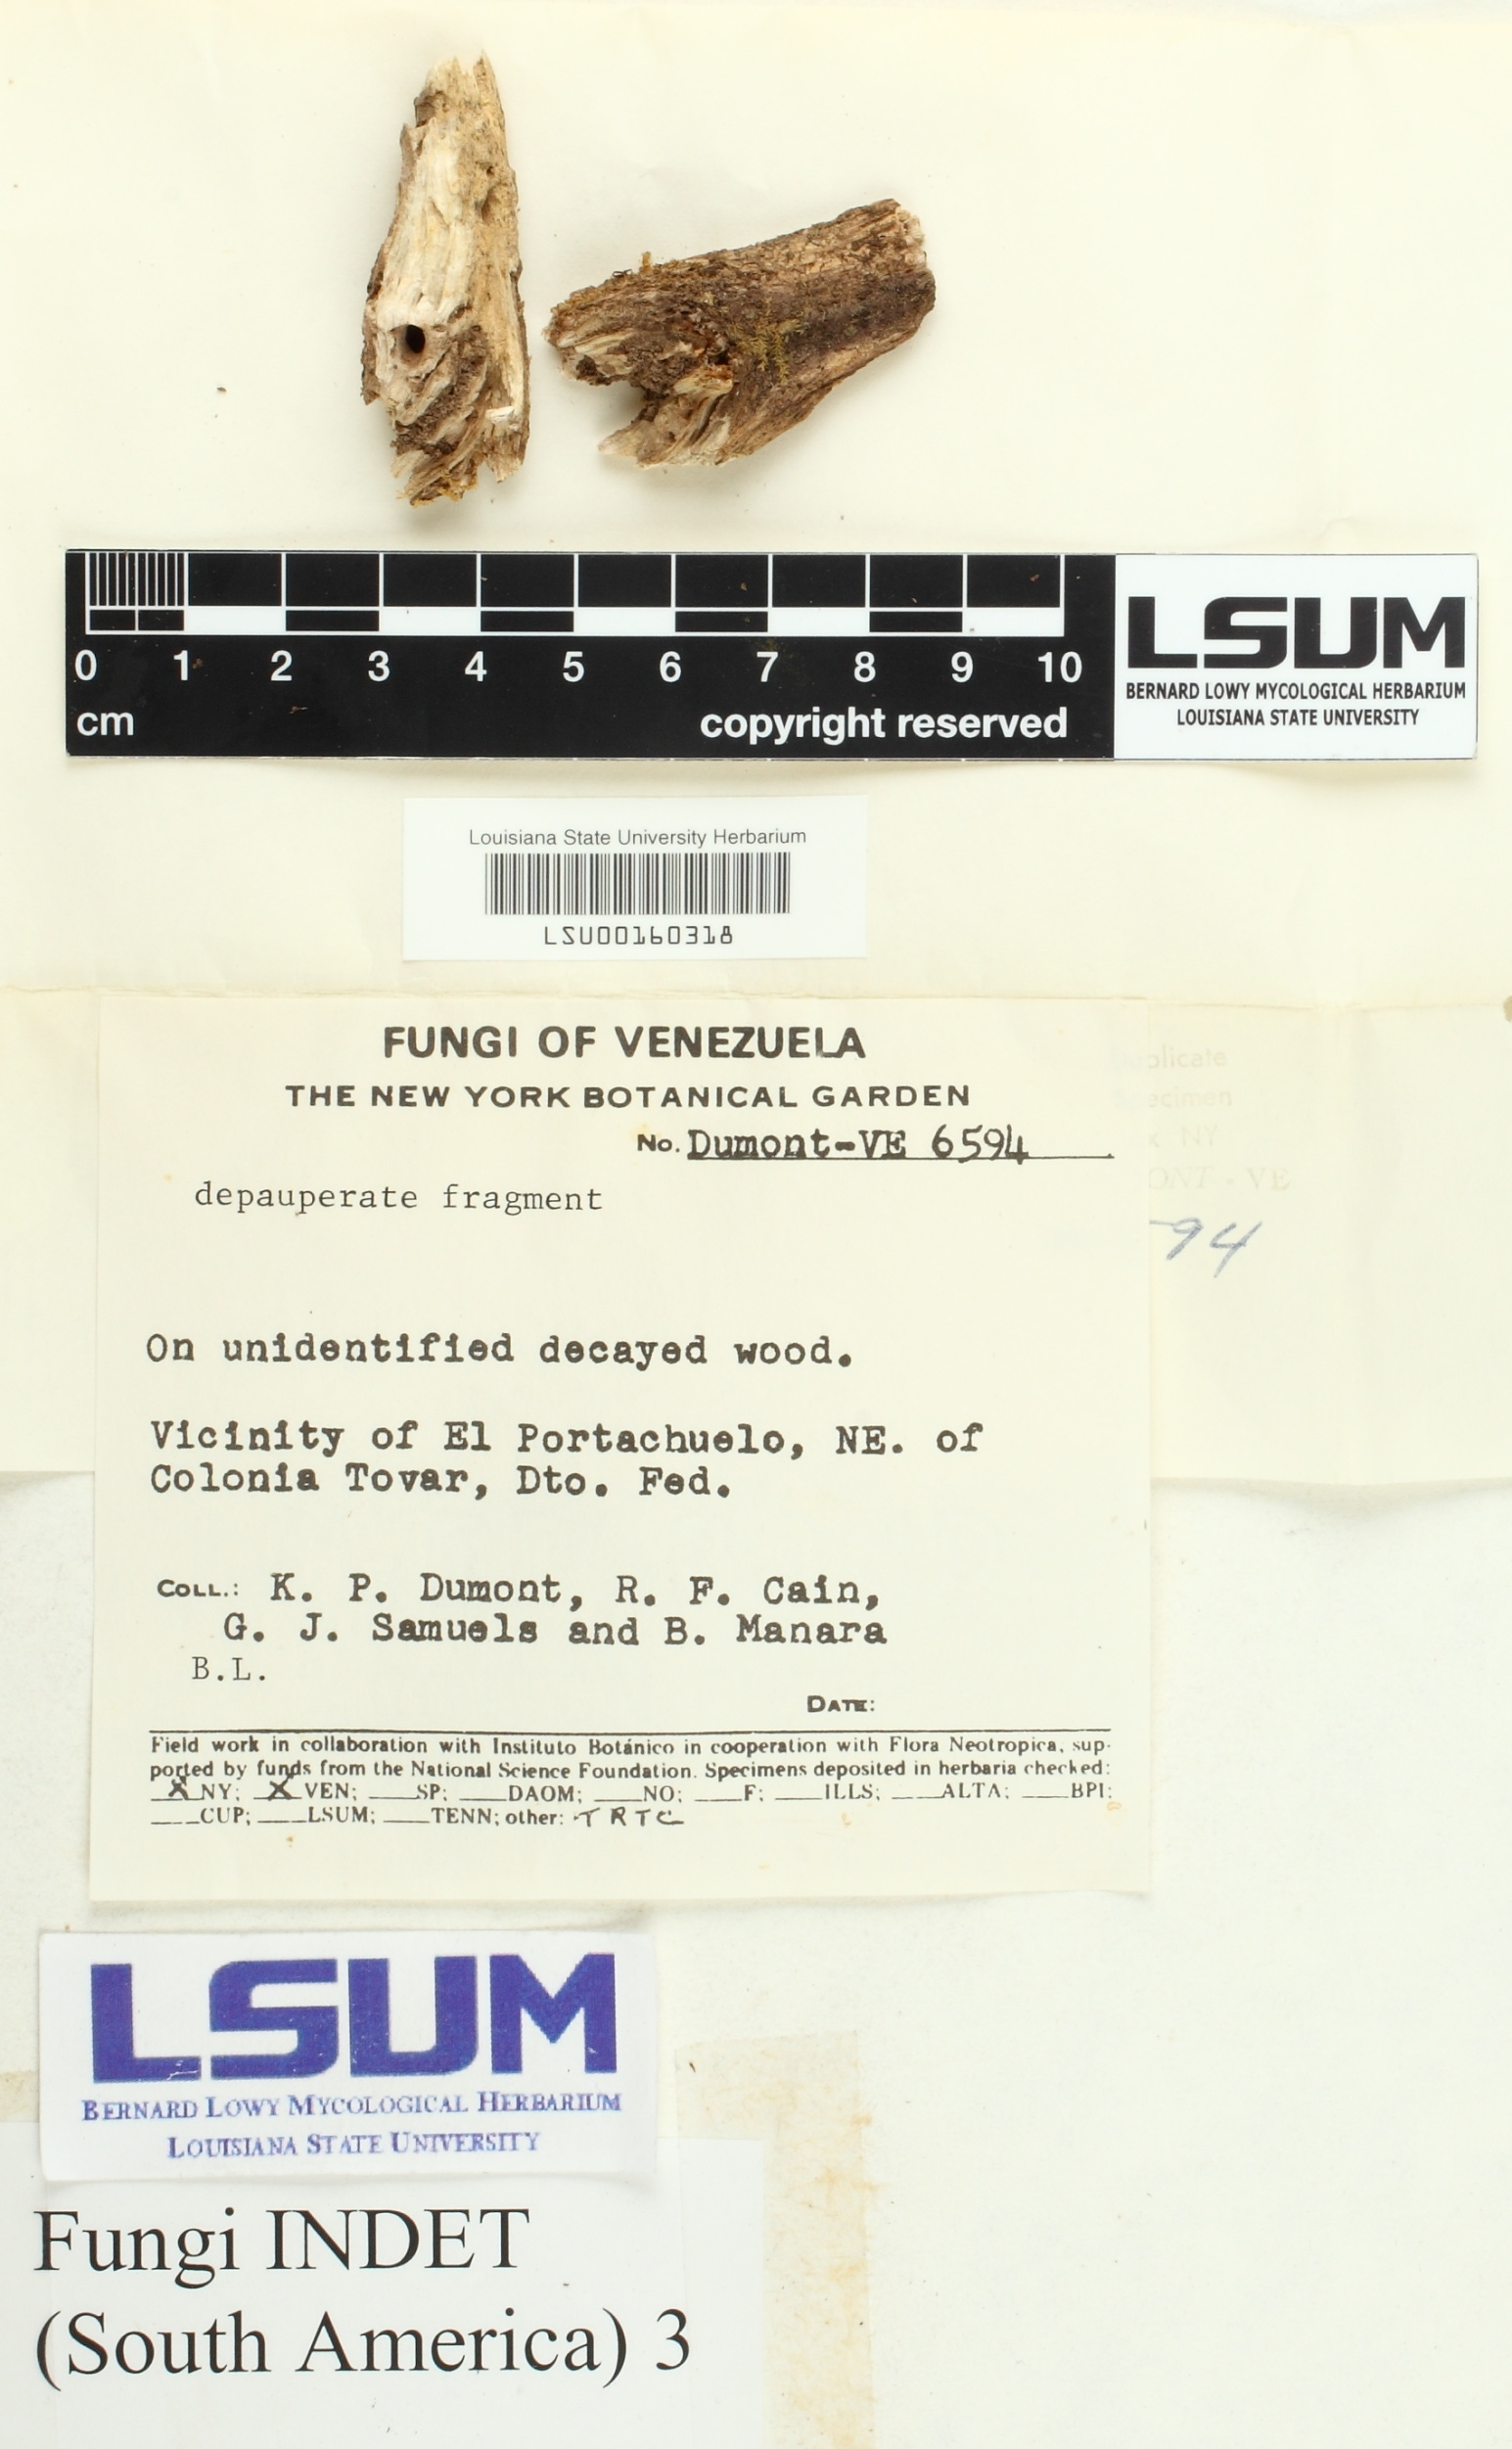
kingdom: Fungi
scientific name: Fungi
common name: Fungi
